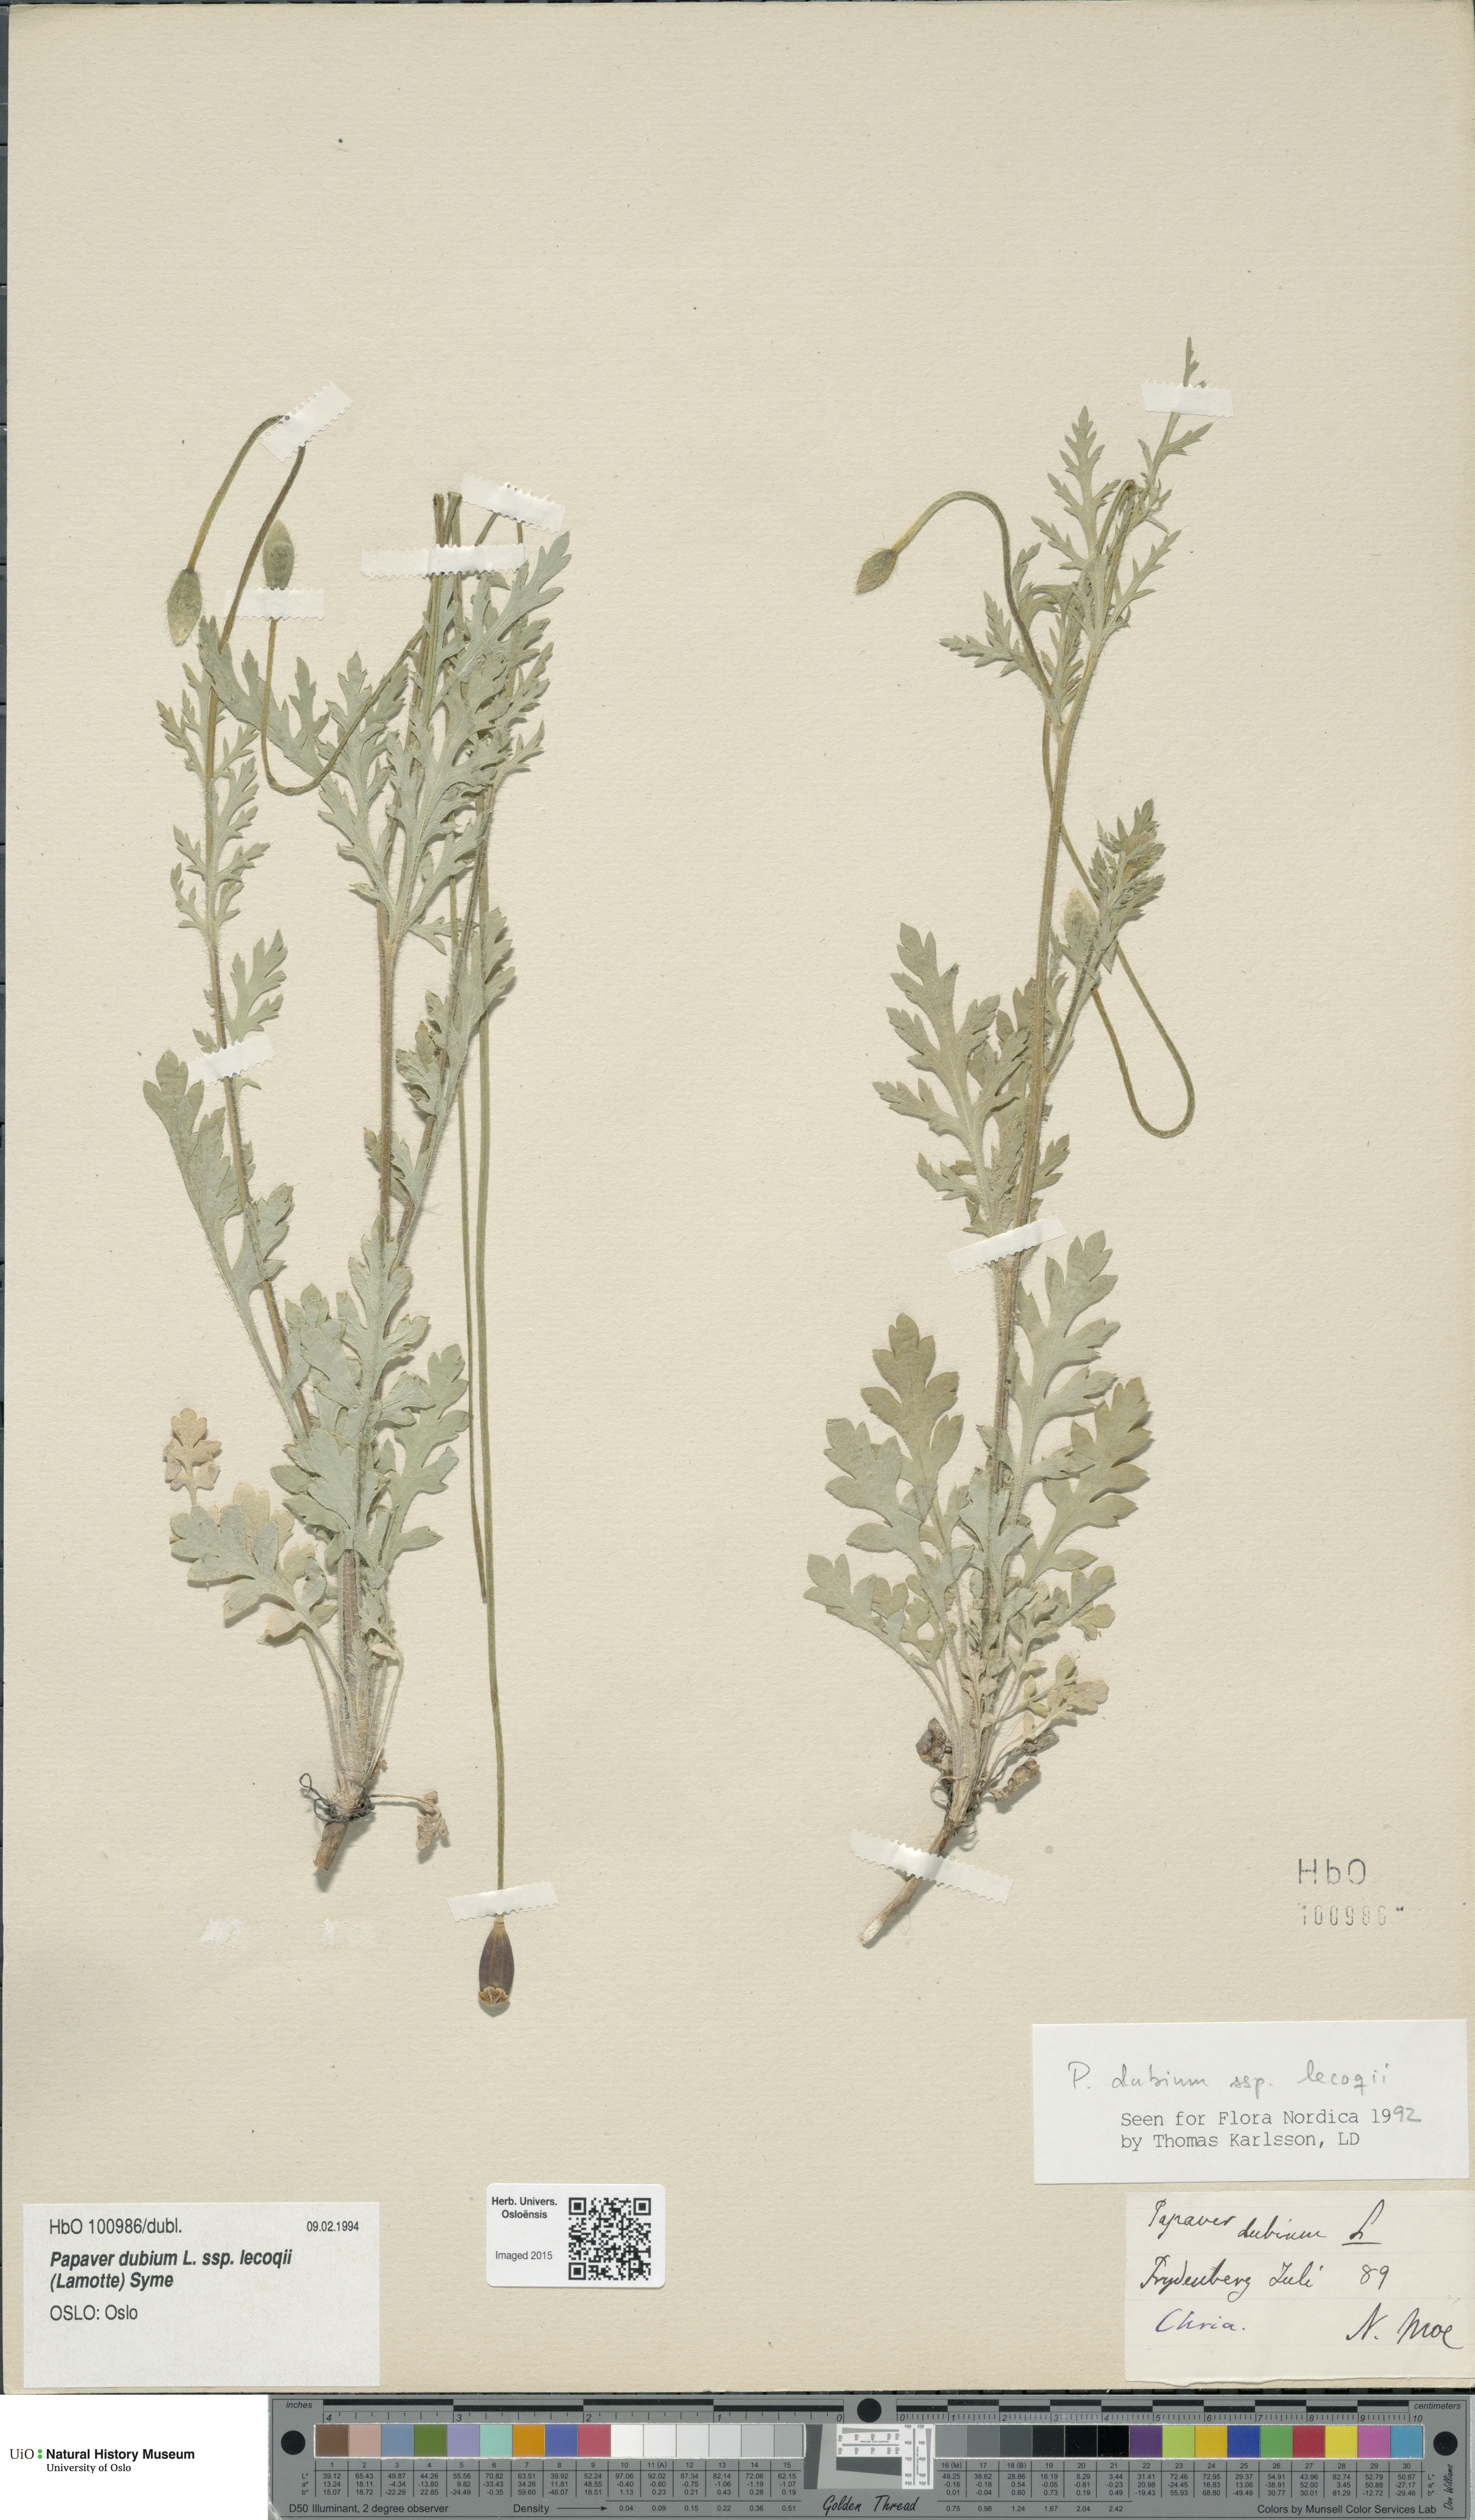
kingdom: Plantae
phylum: Tracheophyta
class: Magnoliopsida
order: Ranunculales
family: Papaveraceae
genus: Papaver
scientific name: Papaver lecoqii
